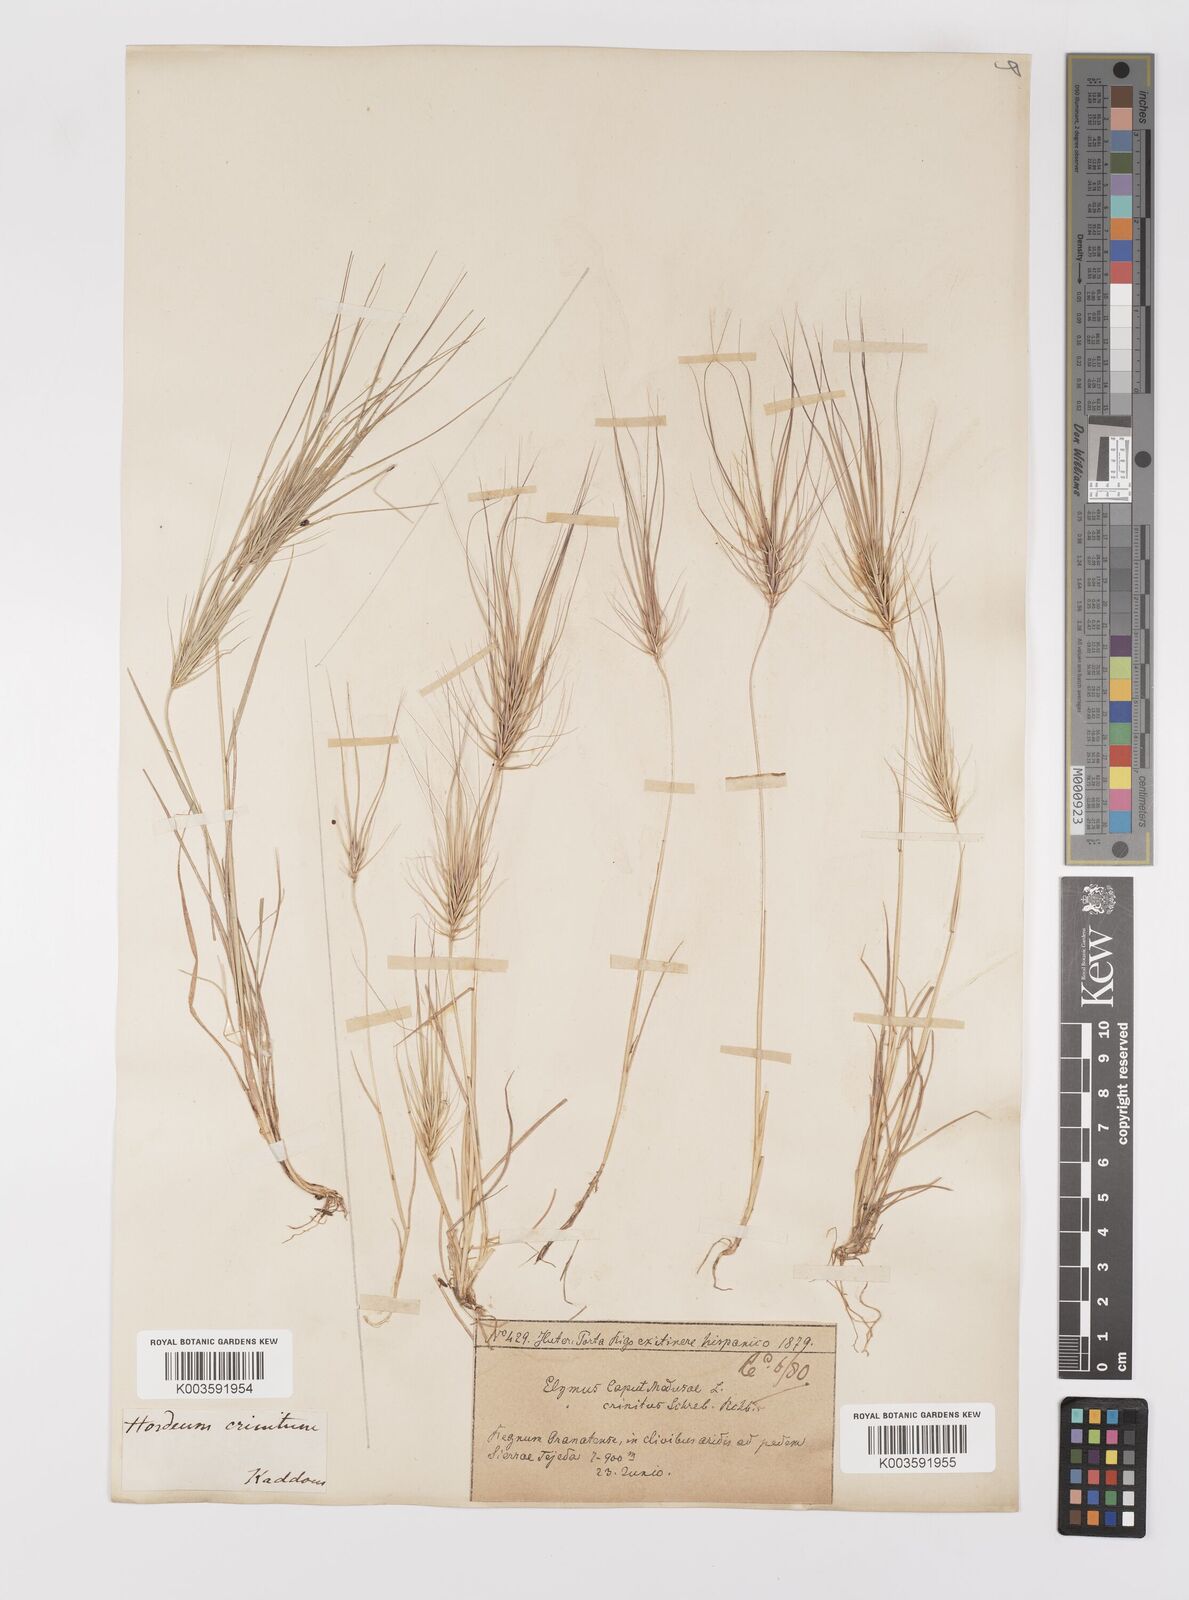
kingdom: Plantae
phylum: Tracheophyta
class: Liliopsida
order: Poales
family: Poaceae
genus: Taeniatherum
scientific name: Taeniatherum caput-medusae
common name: Medusahead
